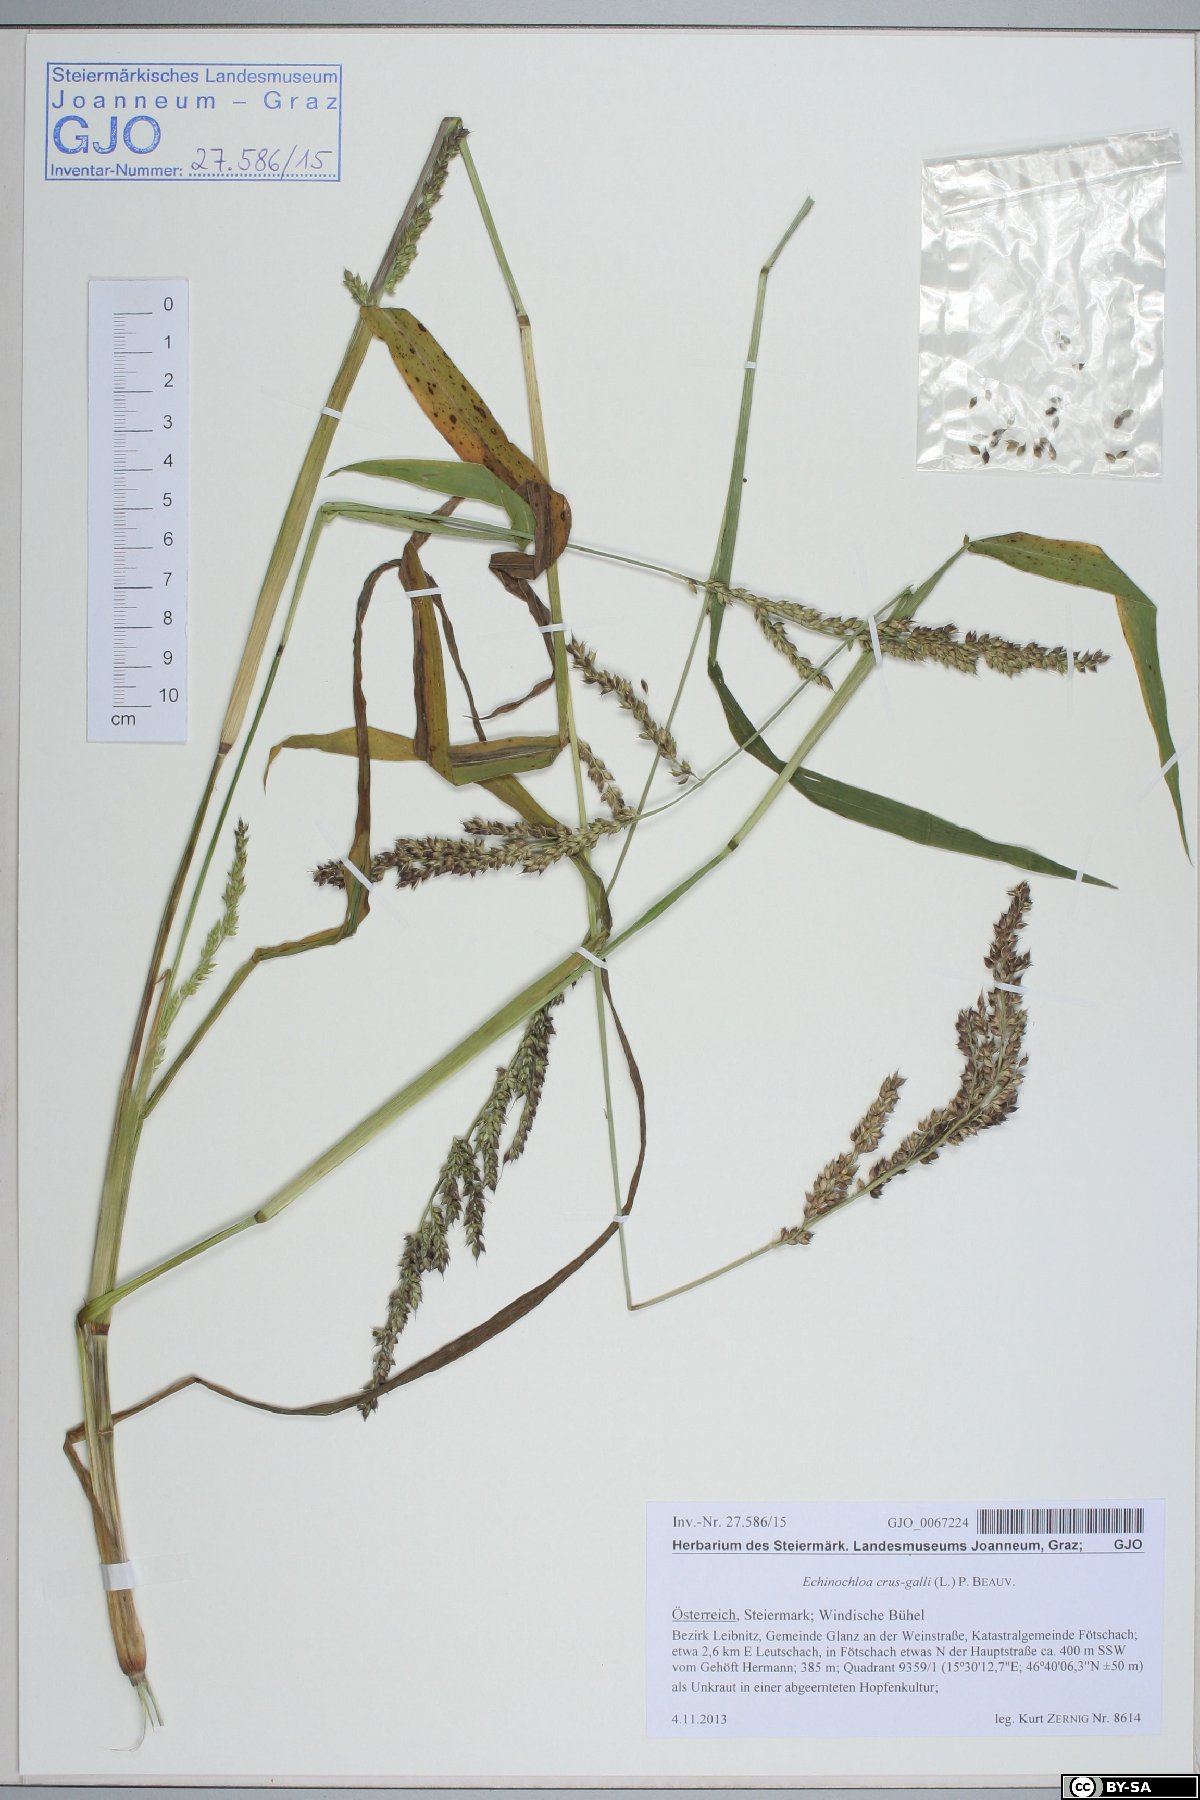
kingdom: Plantae
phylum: Tracheophyta
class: Liliopsida
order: Poales
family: Poaceae
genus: Echinochloa
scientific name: Echinochloa crus-galli
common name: Cockspur
